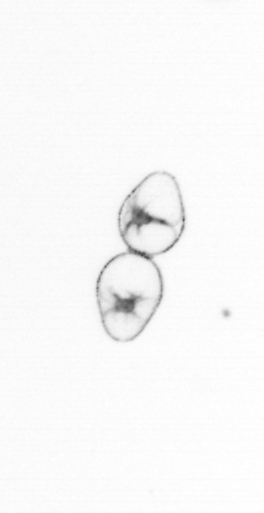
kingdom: Chromista
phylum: Myzozoa
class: Dinophyceae
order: Noctilucales
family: Noctilucaceae
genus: Noctiluca
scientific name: Noctiluca scintillans
